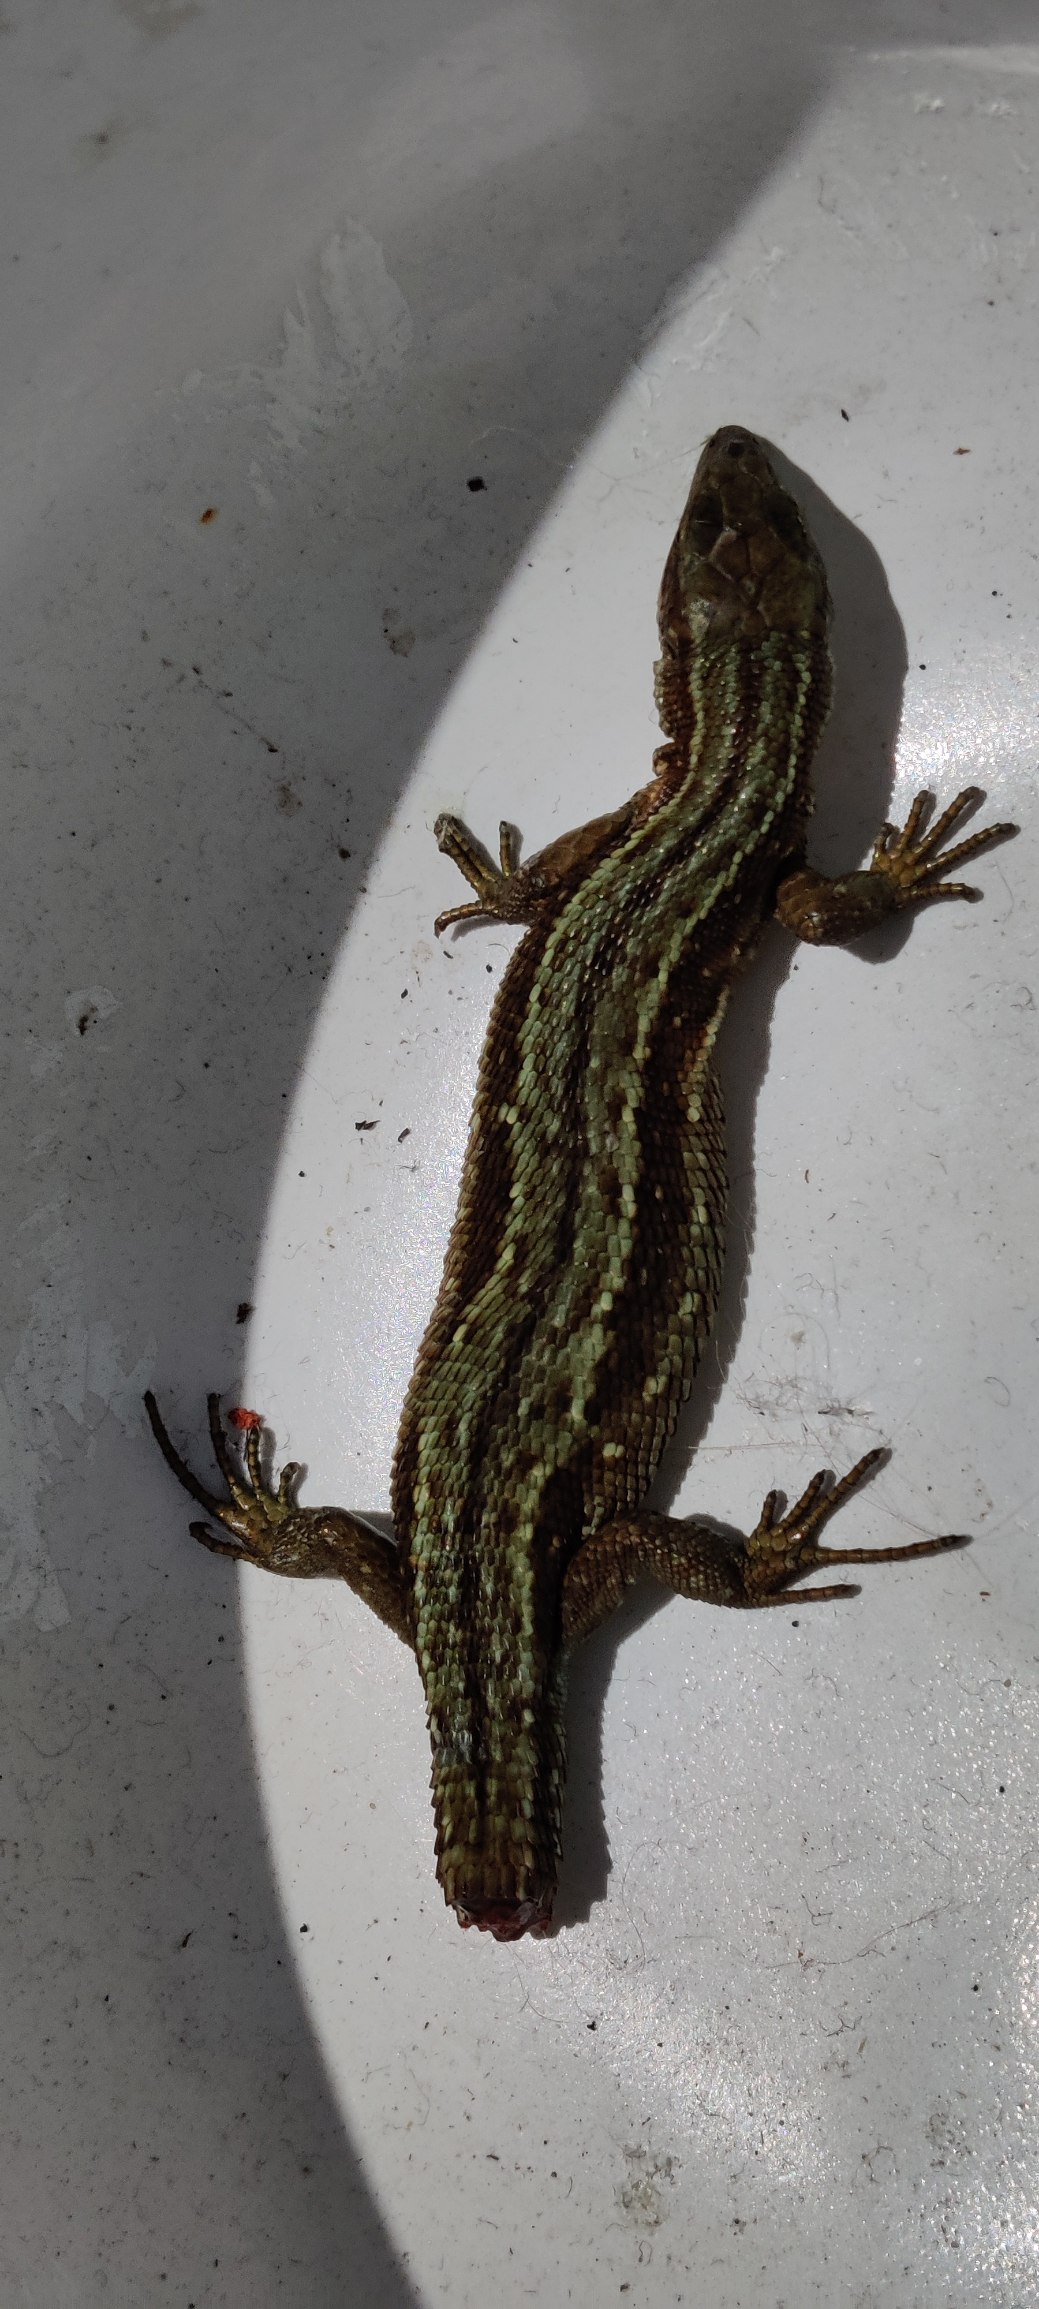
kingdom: Animalia
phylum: Chordata
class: Squamata
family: Lacertidae
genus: Zootoca
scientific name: Zootoca vivipara
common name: Skovfirben
